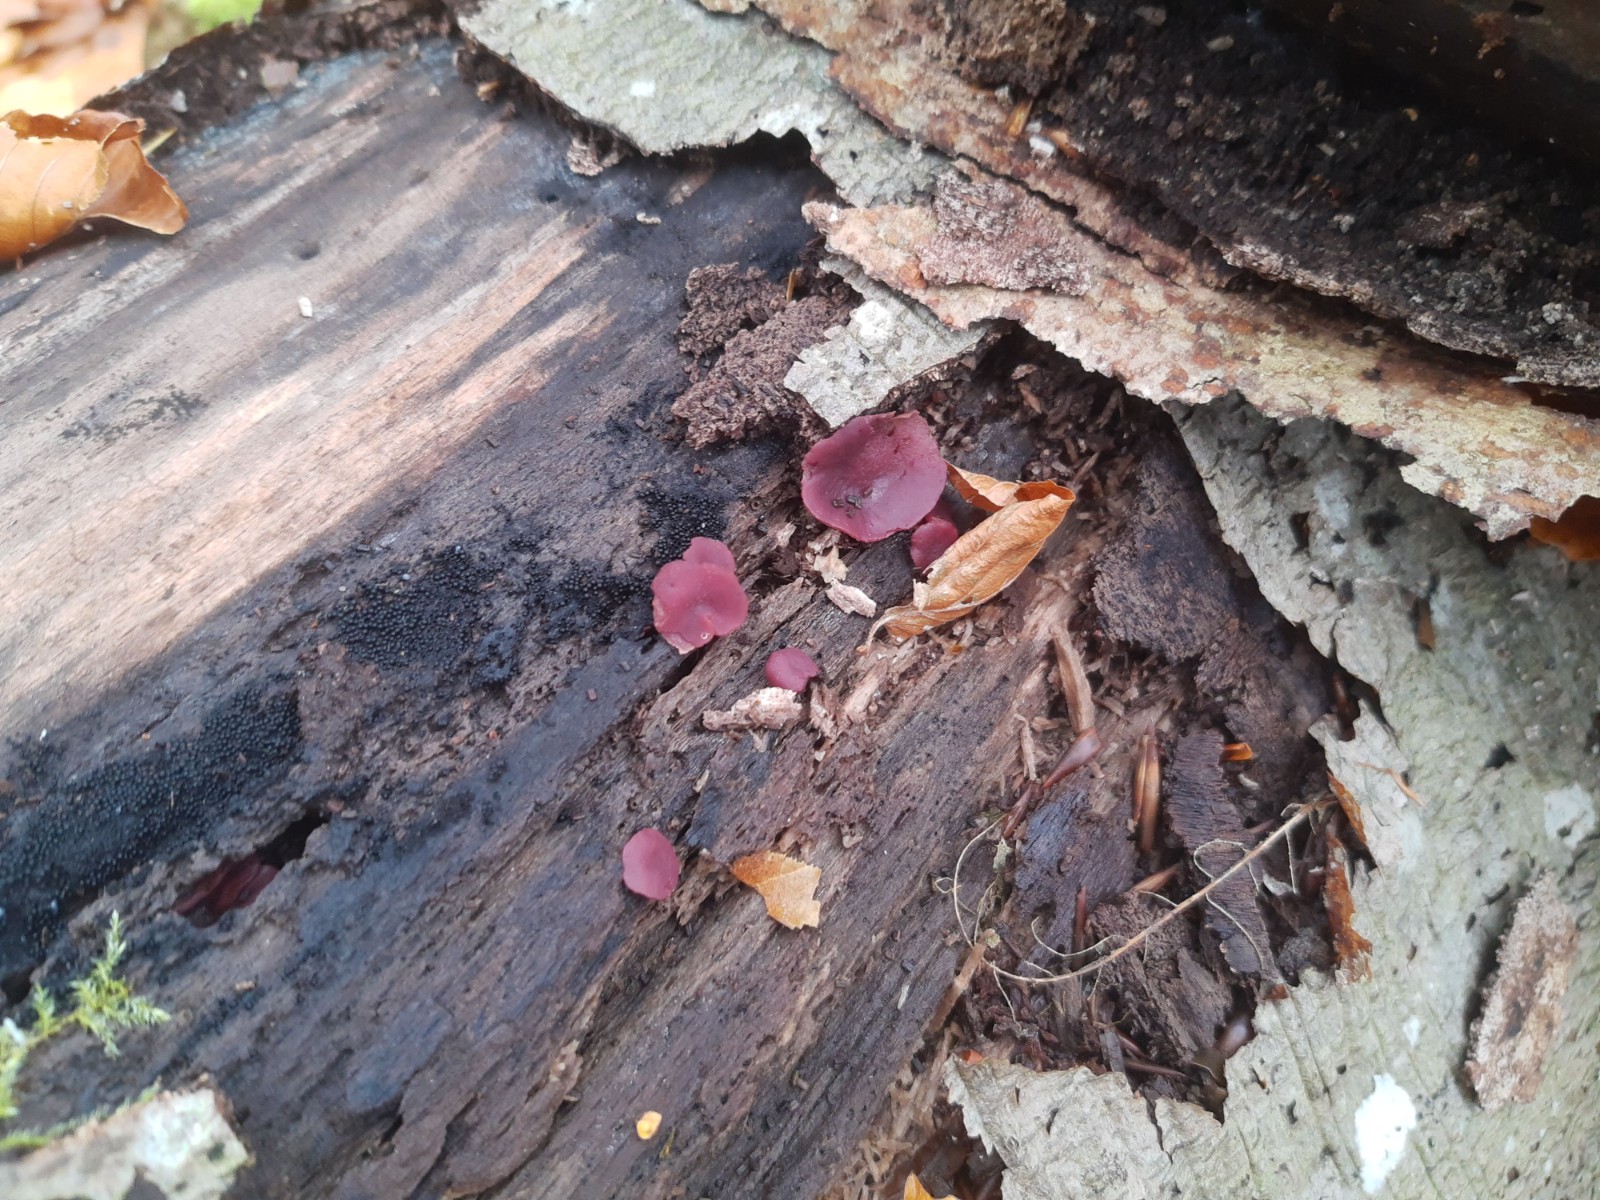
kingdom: Fungi
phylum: Ascomycota
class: Leotiomycetes
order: Helotiales
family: Gelatinodiscaceae
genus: Ascocoryne
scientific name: Ascocoryne cylichnium
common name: stor sejskive
